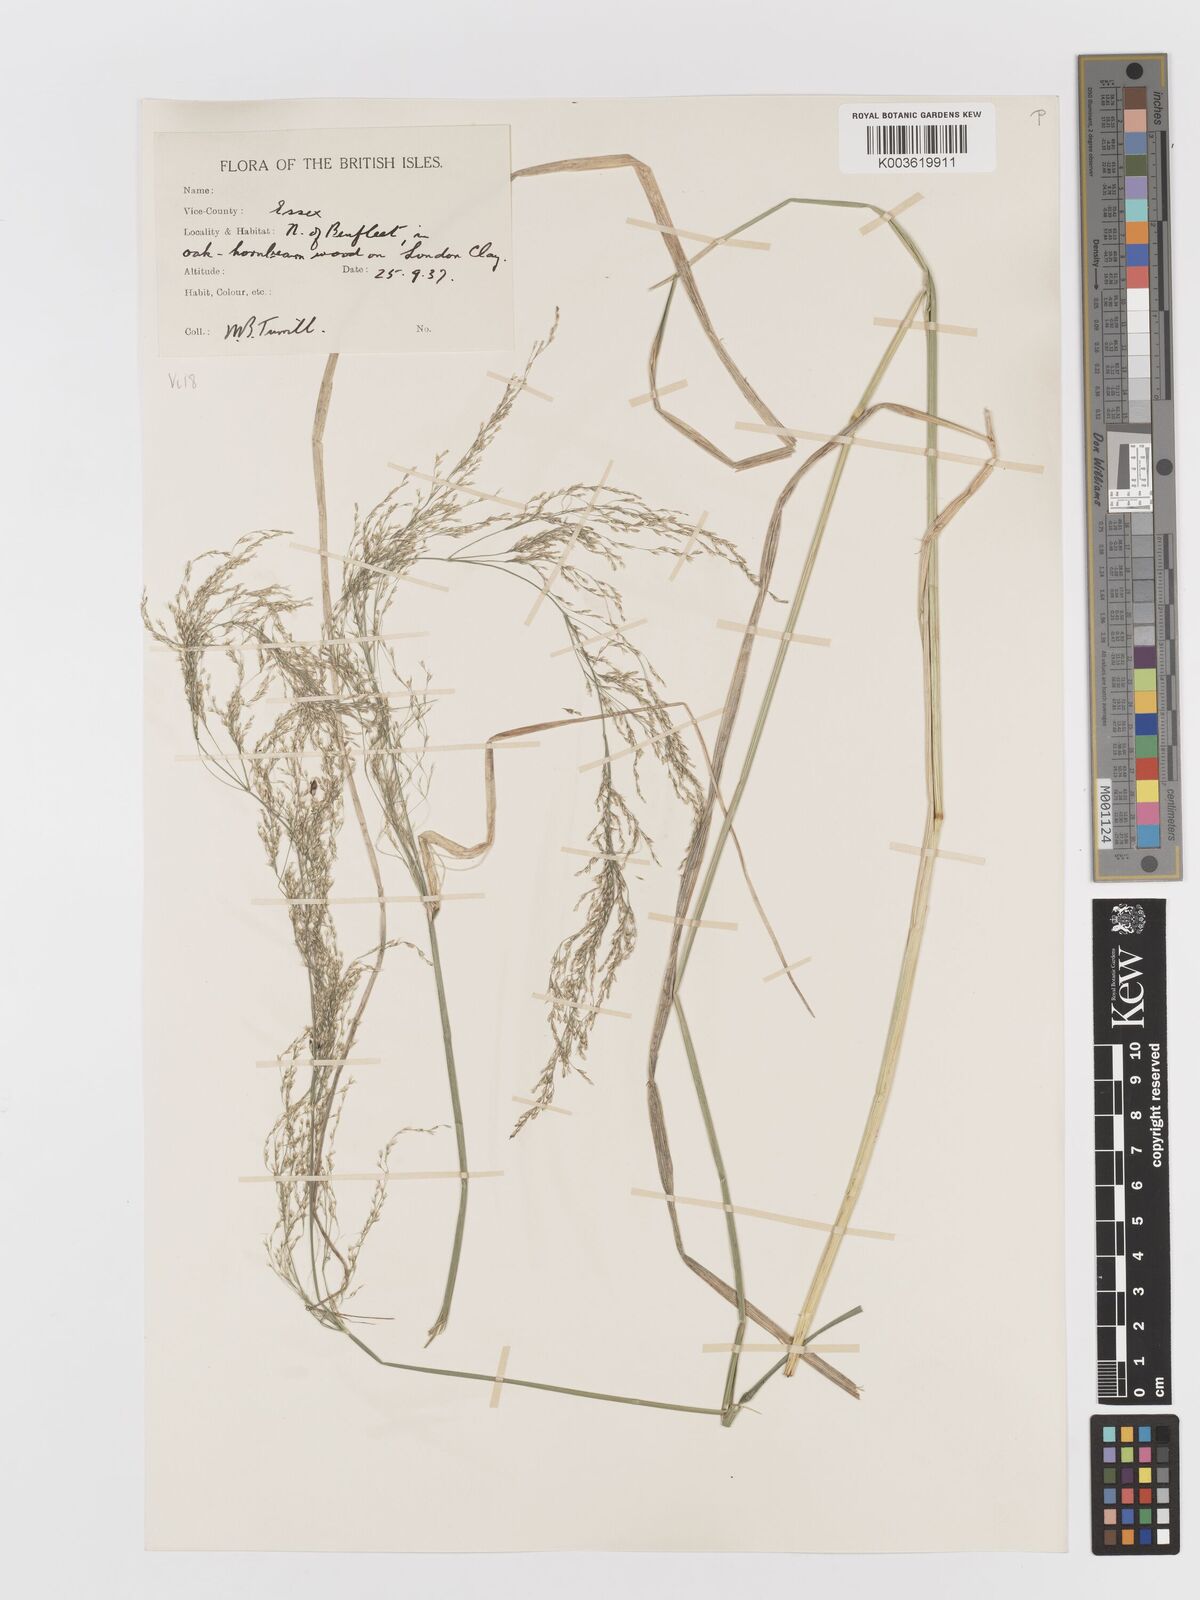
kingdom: Plantae
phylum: Tracheophyta
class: Liliopsida
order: Poales
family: Poaceae
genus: Deschampsia
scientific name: Deschampsia
